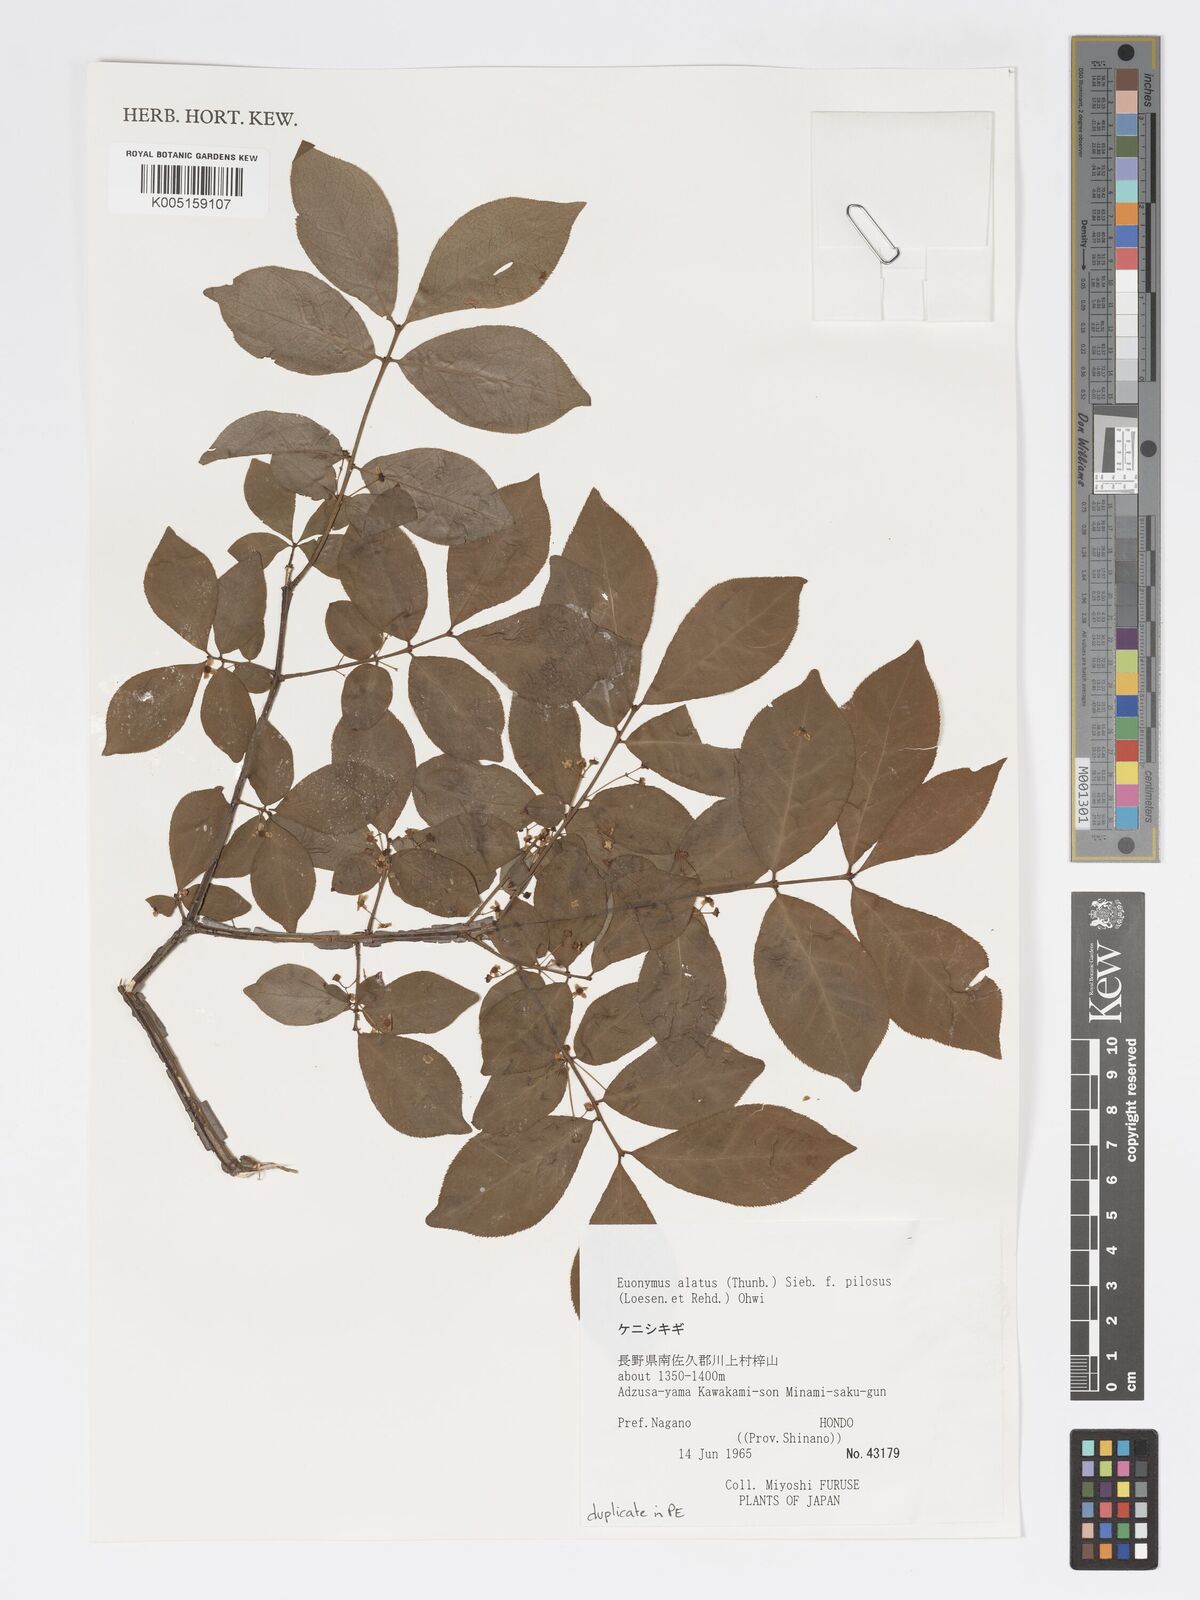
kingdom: Plantae
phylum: Tracheophyta
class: Magnoliopsida
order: Celastrales
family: Celastraceae
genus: Euonymus
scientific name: Euonymus
